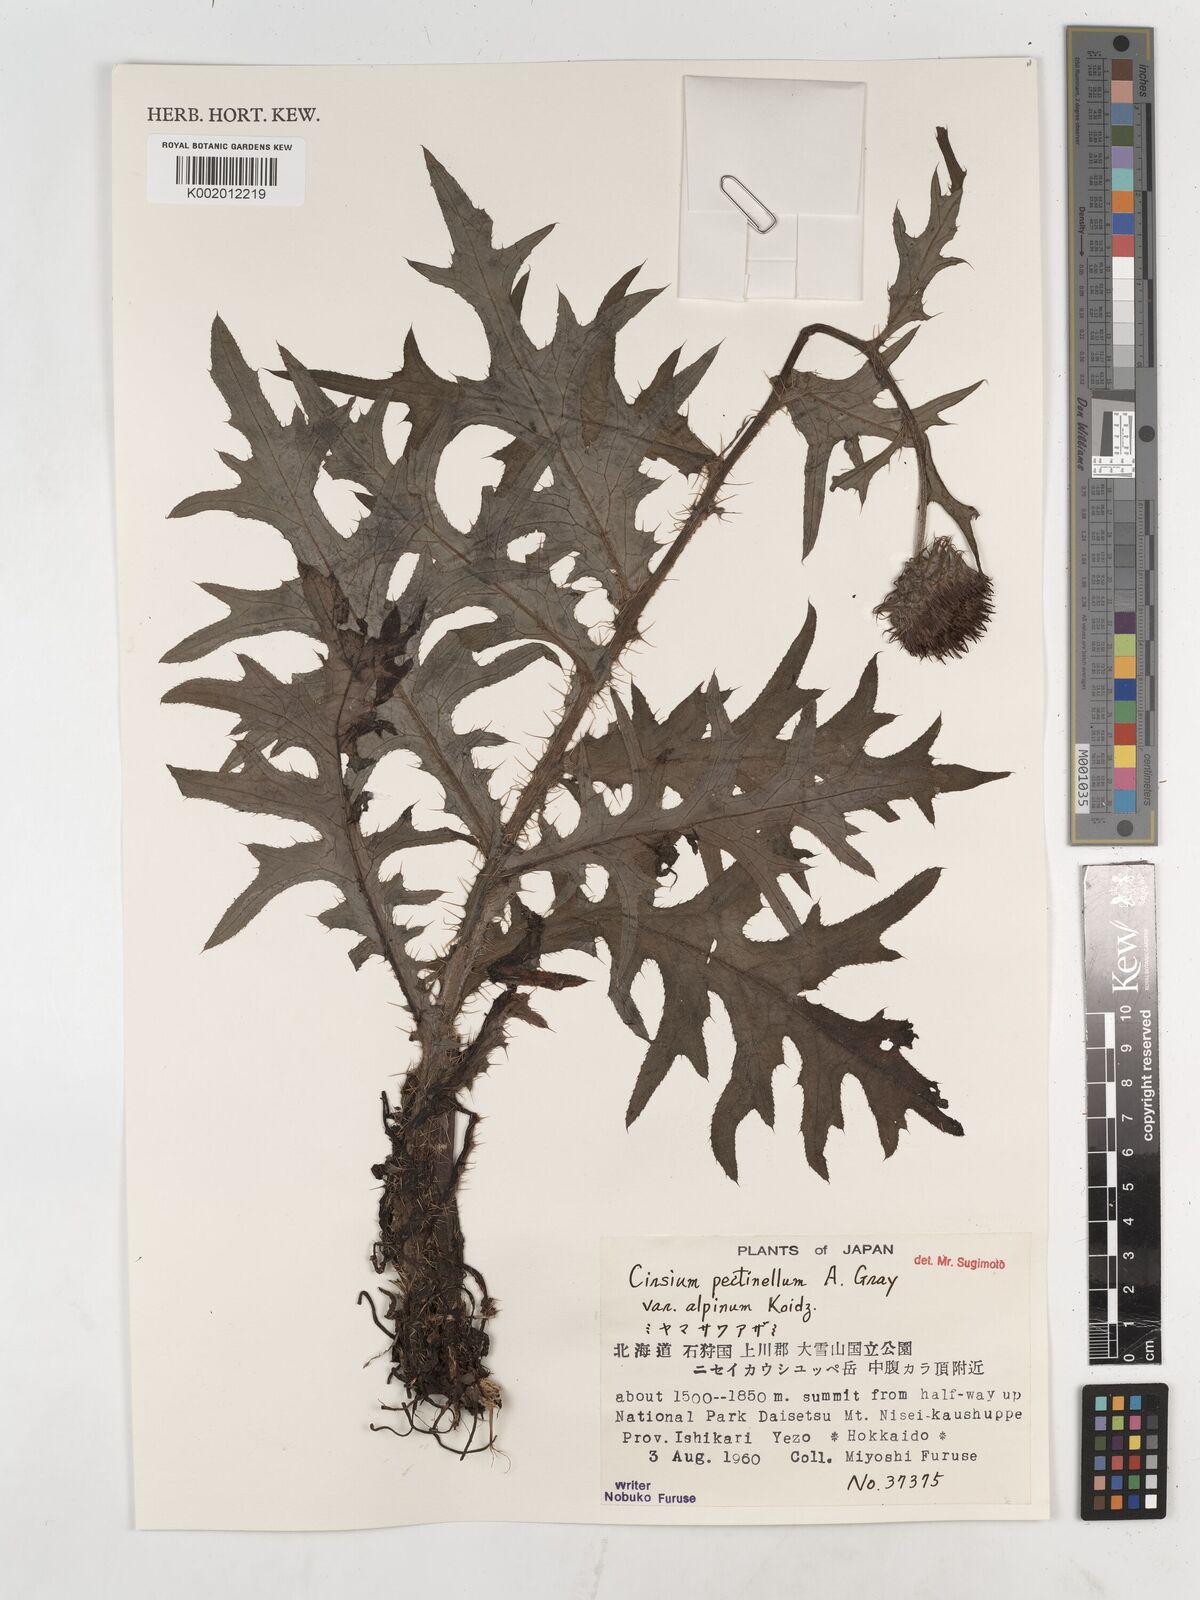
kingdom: Plantae
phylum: Tracheophyta
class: Magnoliopsida
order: Asterales
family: Asteraceae
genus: Cirsium
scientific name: Cirsium pectinellum
